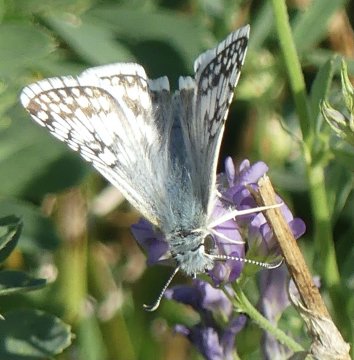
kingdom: Animalia
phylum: Arthropoda
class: Insecta
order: Lepidoptera
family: Hesperiidae
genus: Pyrgus
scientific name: Pyrgus communis
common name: Common Checkered-Skipper
